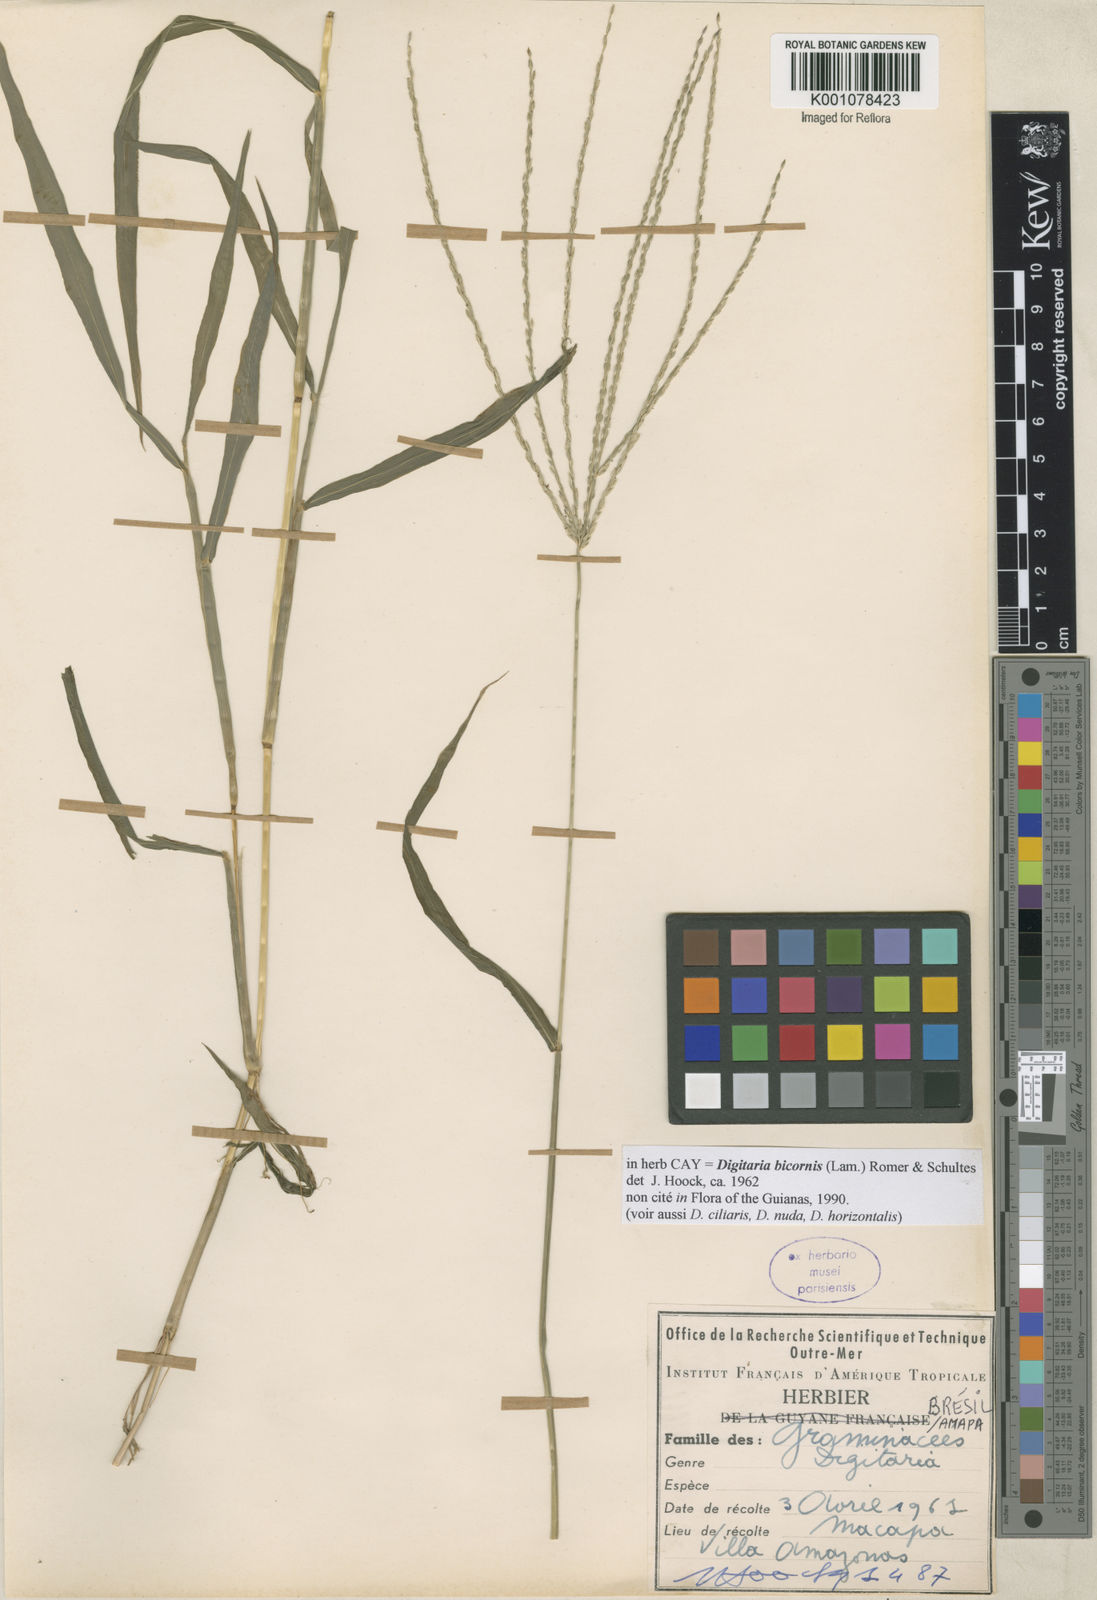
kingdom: Plantae
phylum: Tracheophyta
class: Liliopsida
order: Poales
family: Poaceae
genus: Digitaria
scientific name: Digitaria bicornis
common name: Asian crabgrass
